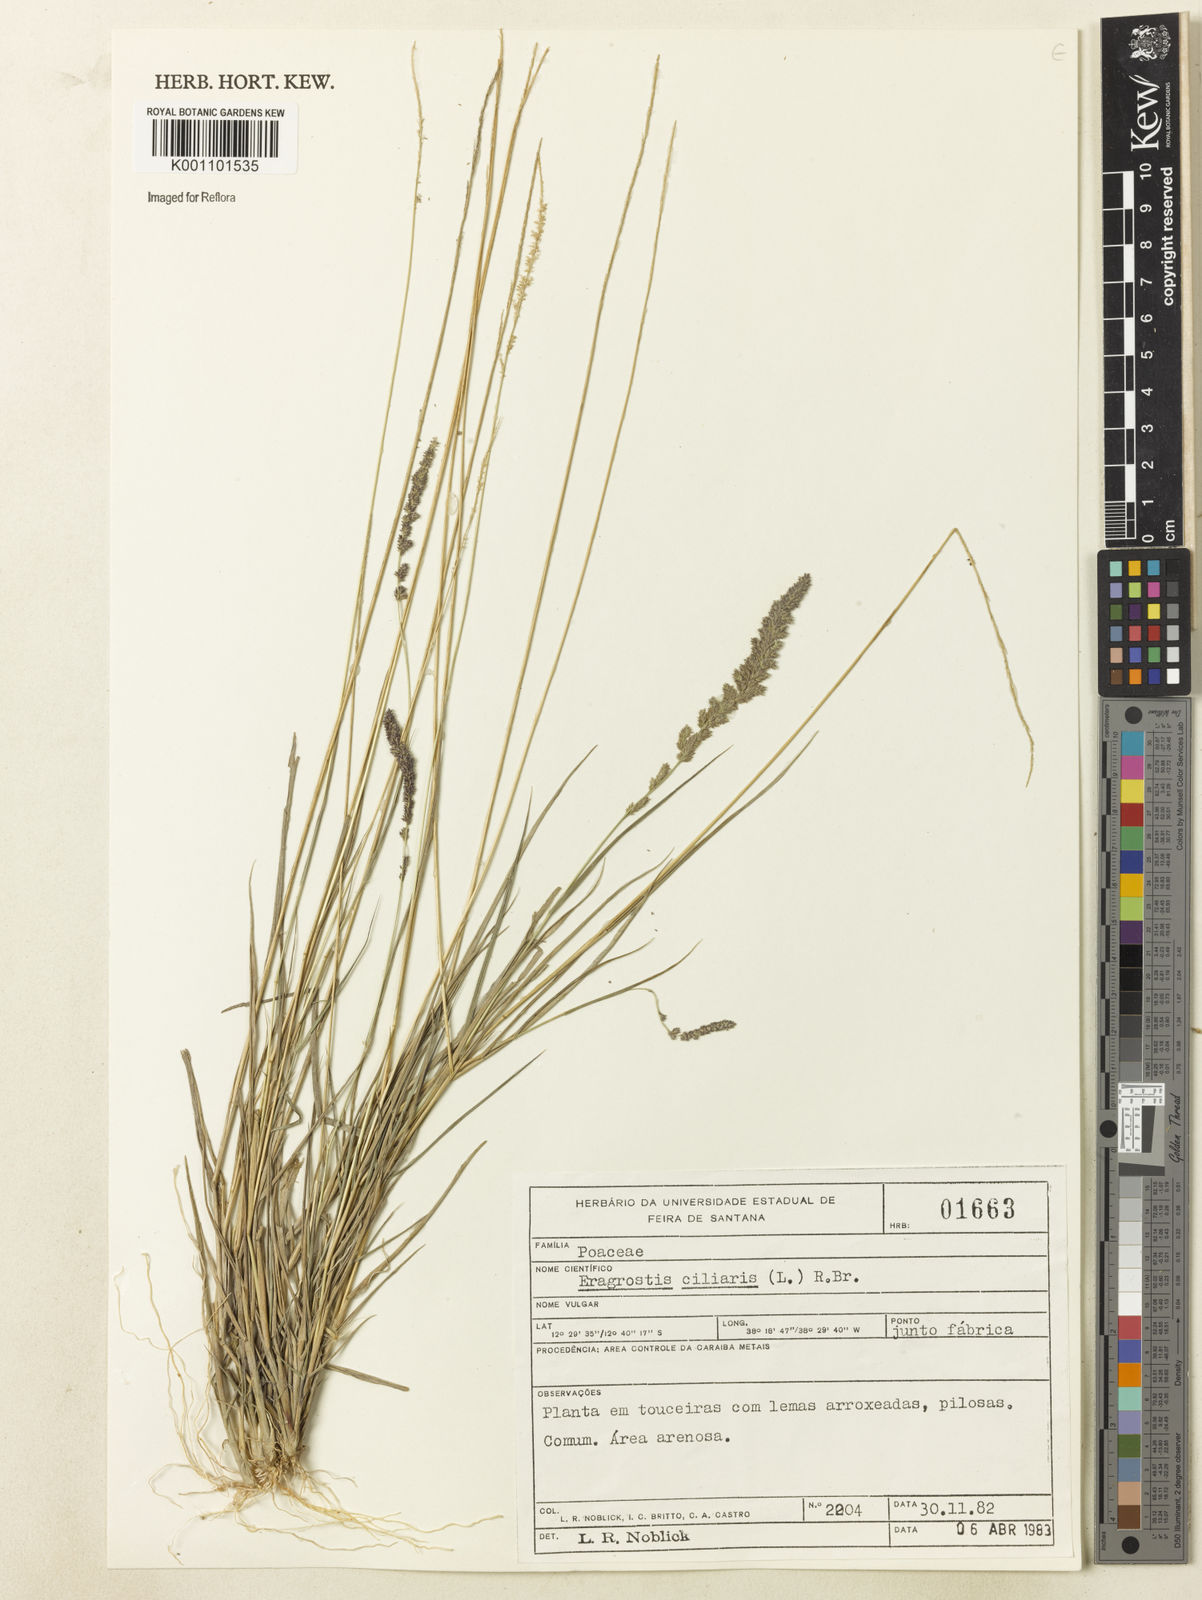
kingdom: Plantae
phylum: Tracheophyta
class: Liliopsida
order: Poales
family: Poaceae
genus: Eragrostis
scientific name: Eragrostis ciliaris
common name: Gophertail lovegrass
